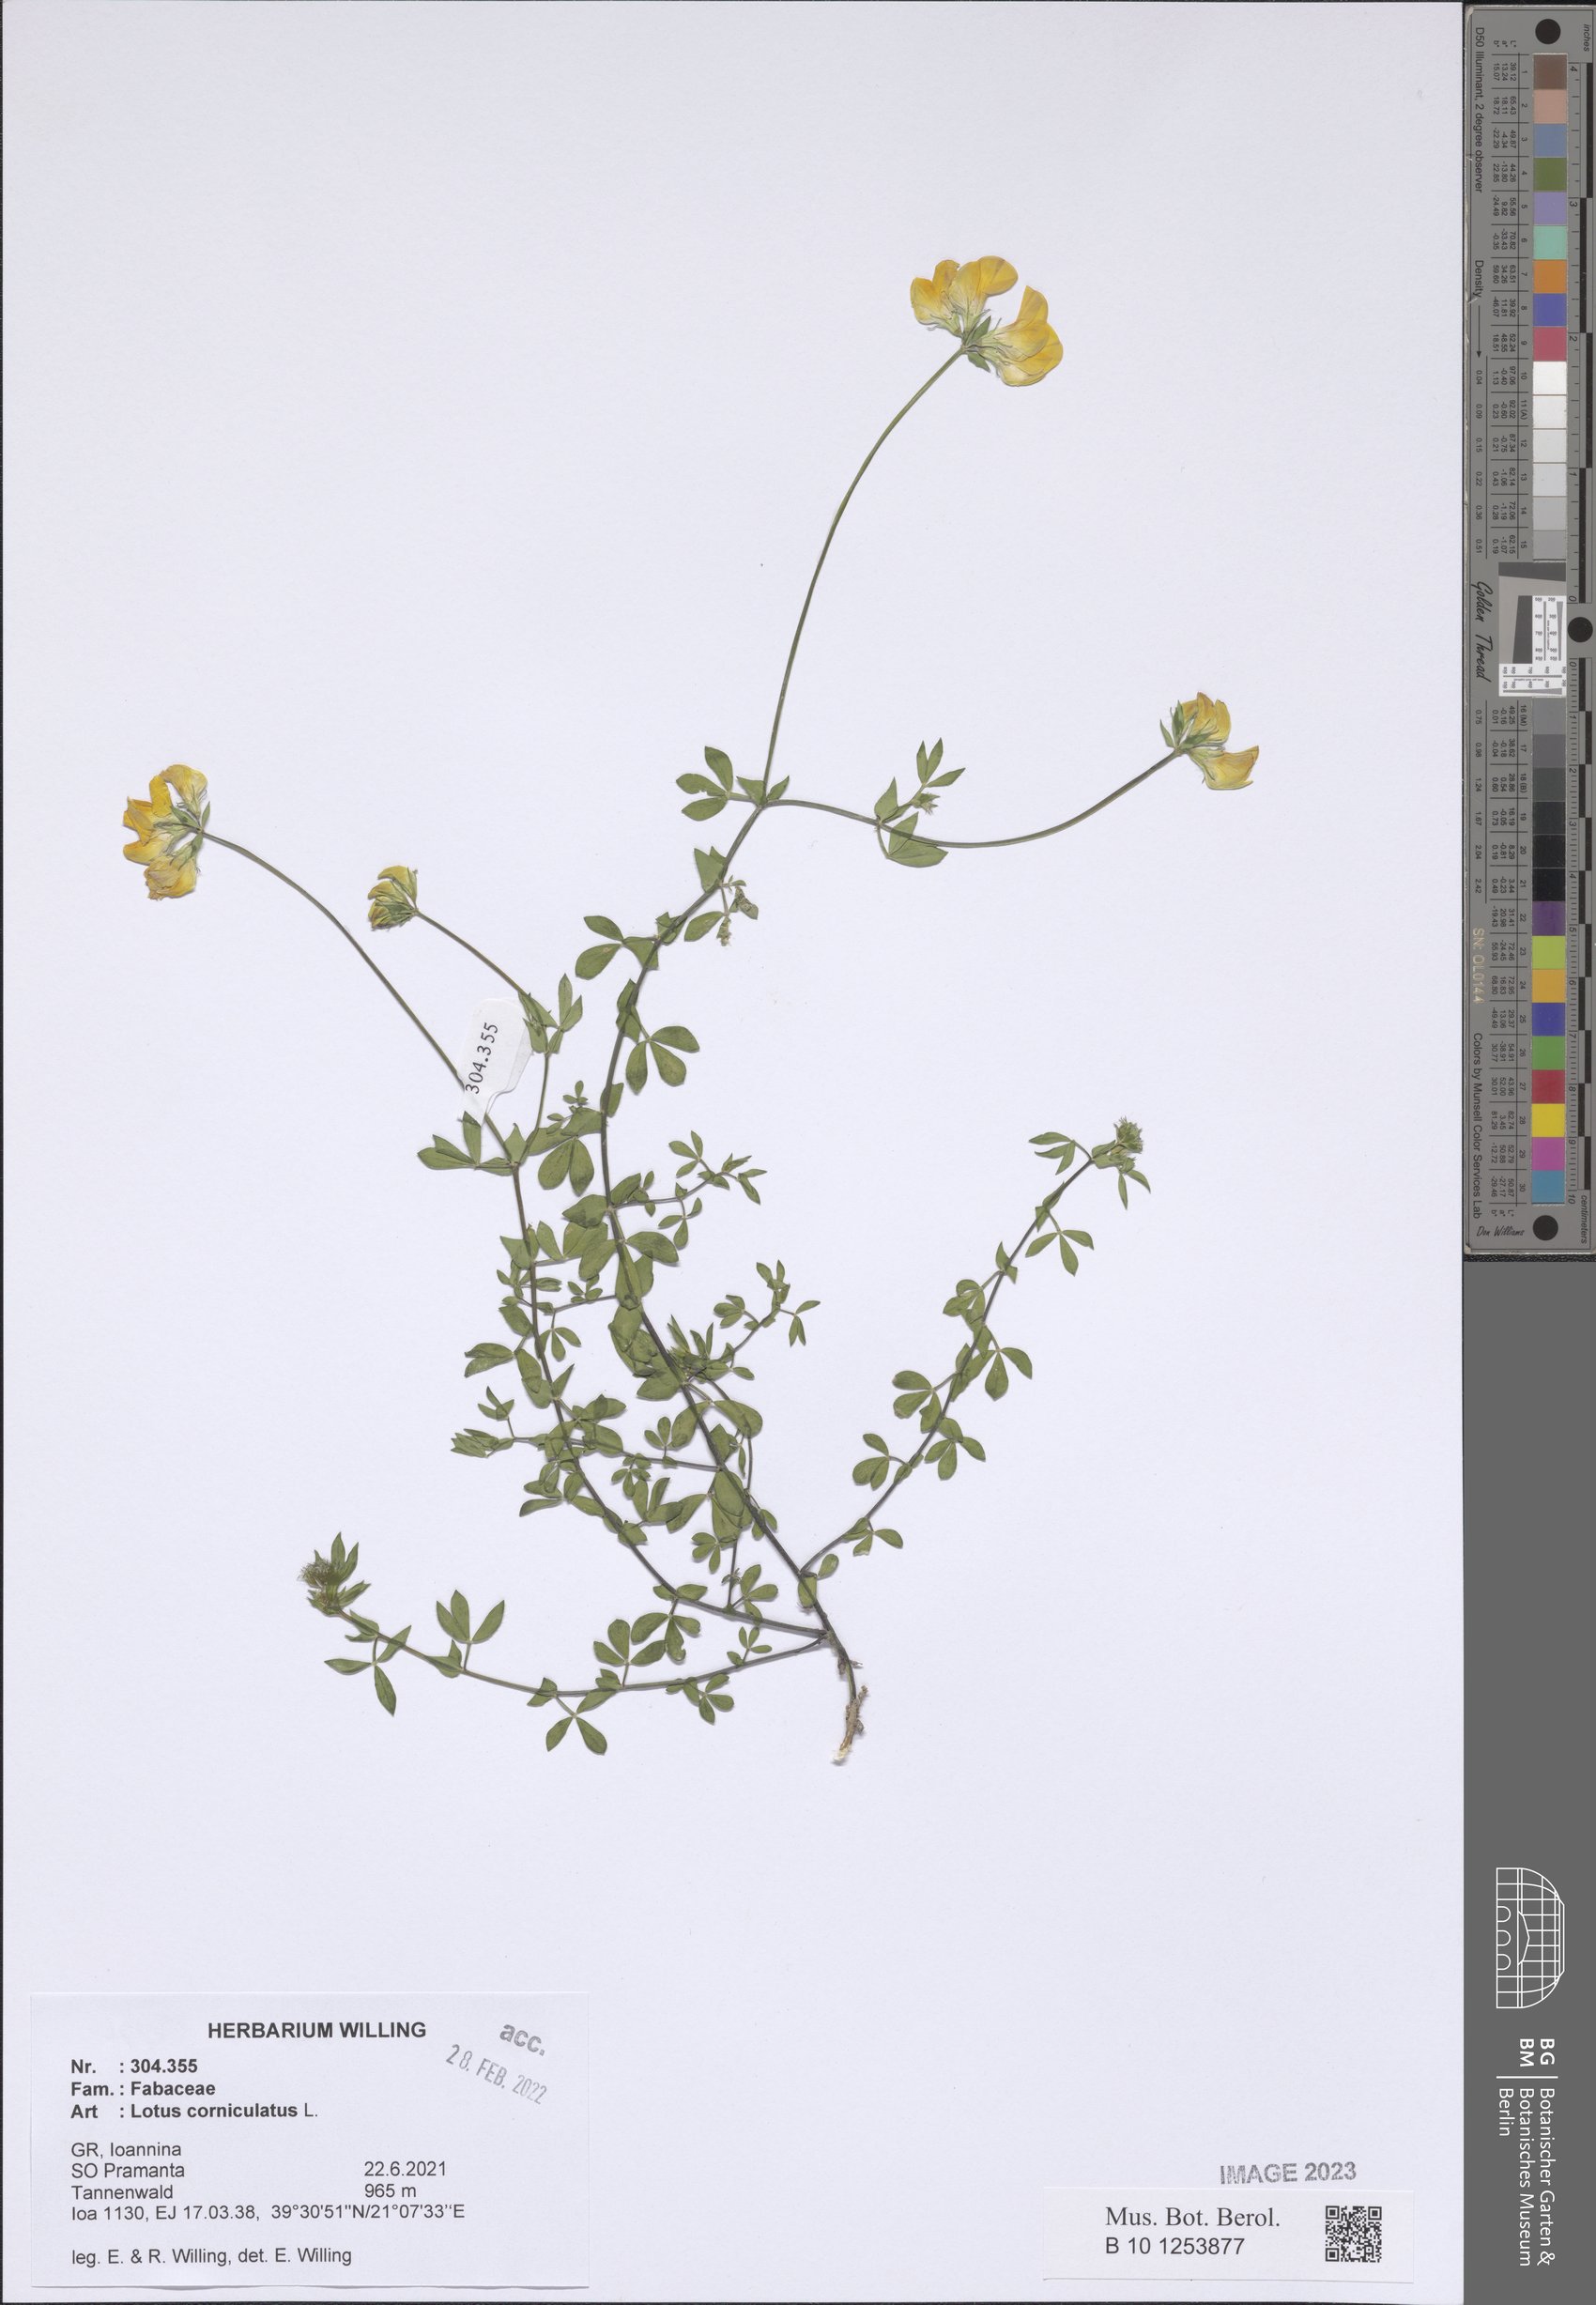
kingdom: Plantae
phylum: Tracheophyta
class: Magnoliopsida
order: Fabales
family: Fabaceae
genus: Lotus
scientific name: Lotus corniculatus
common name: Common bird's-foot-trefoil
